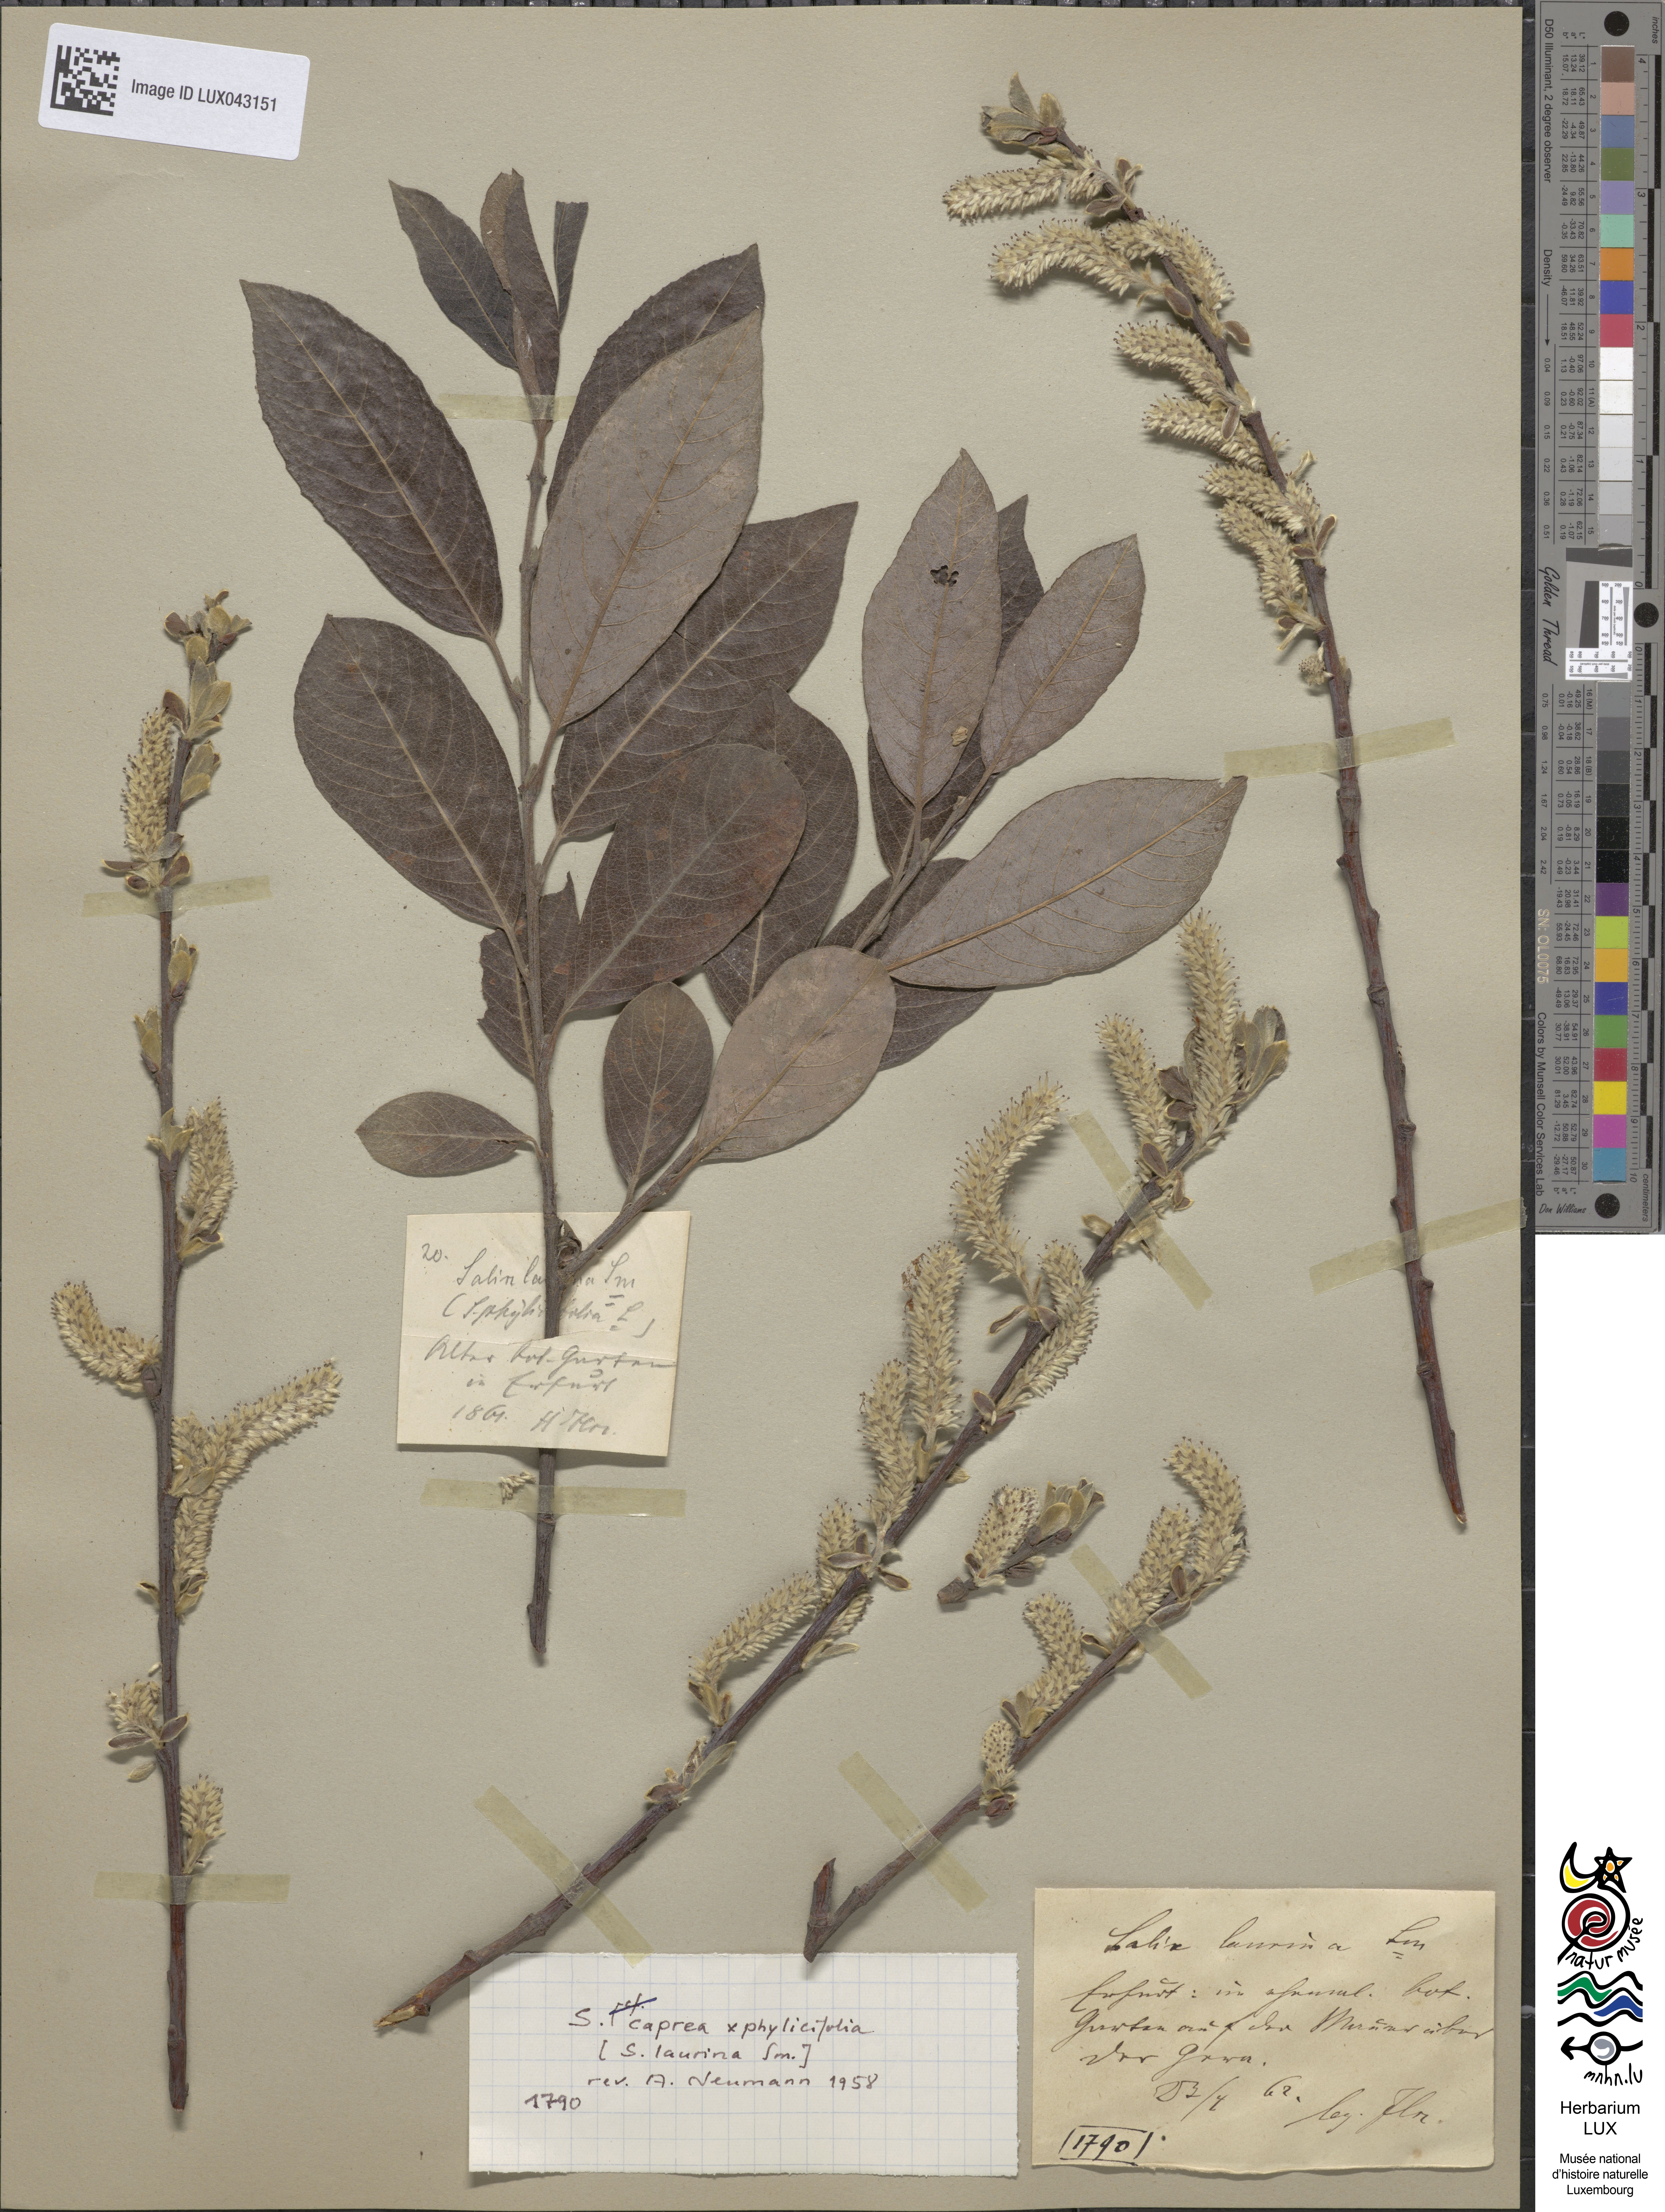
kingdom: Plantae
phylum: Tracheophyta
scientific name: Tracheophyta
